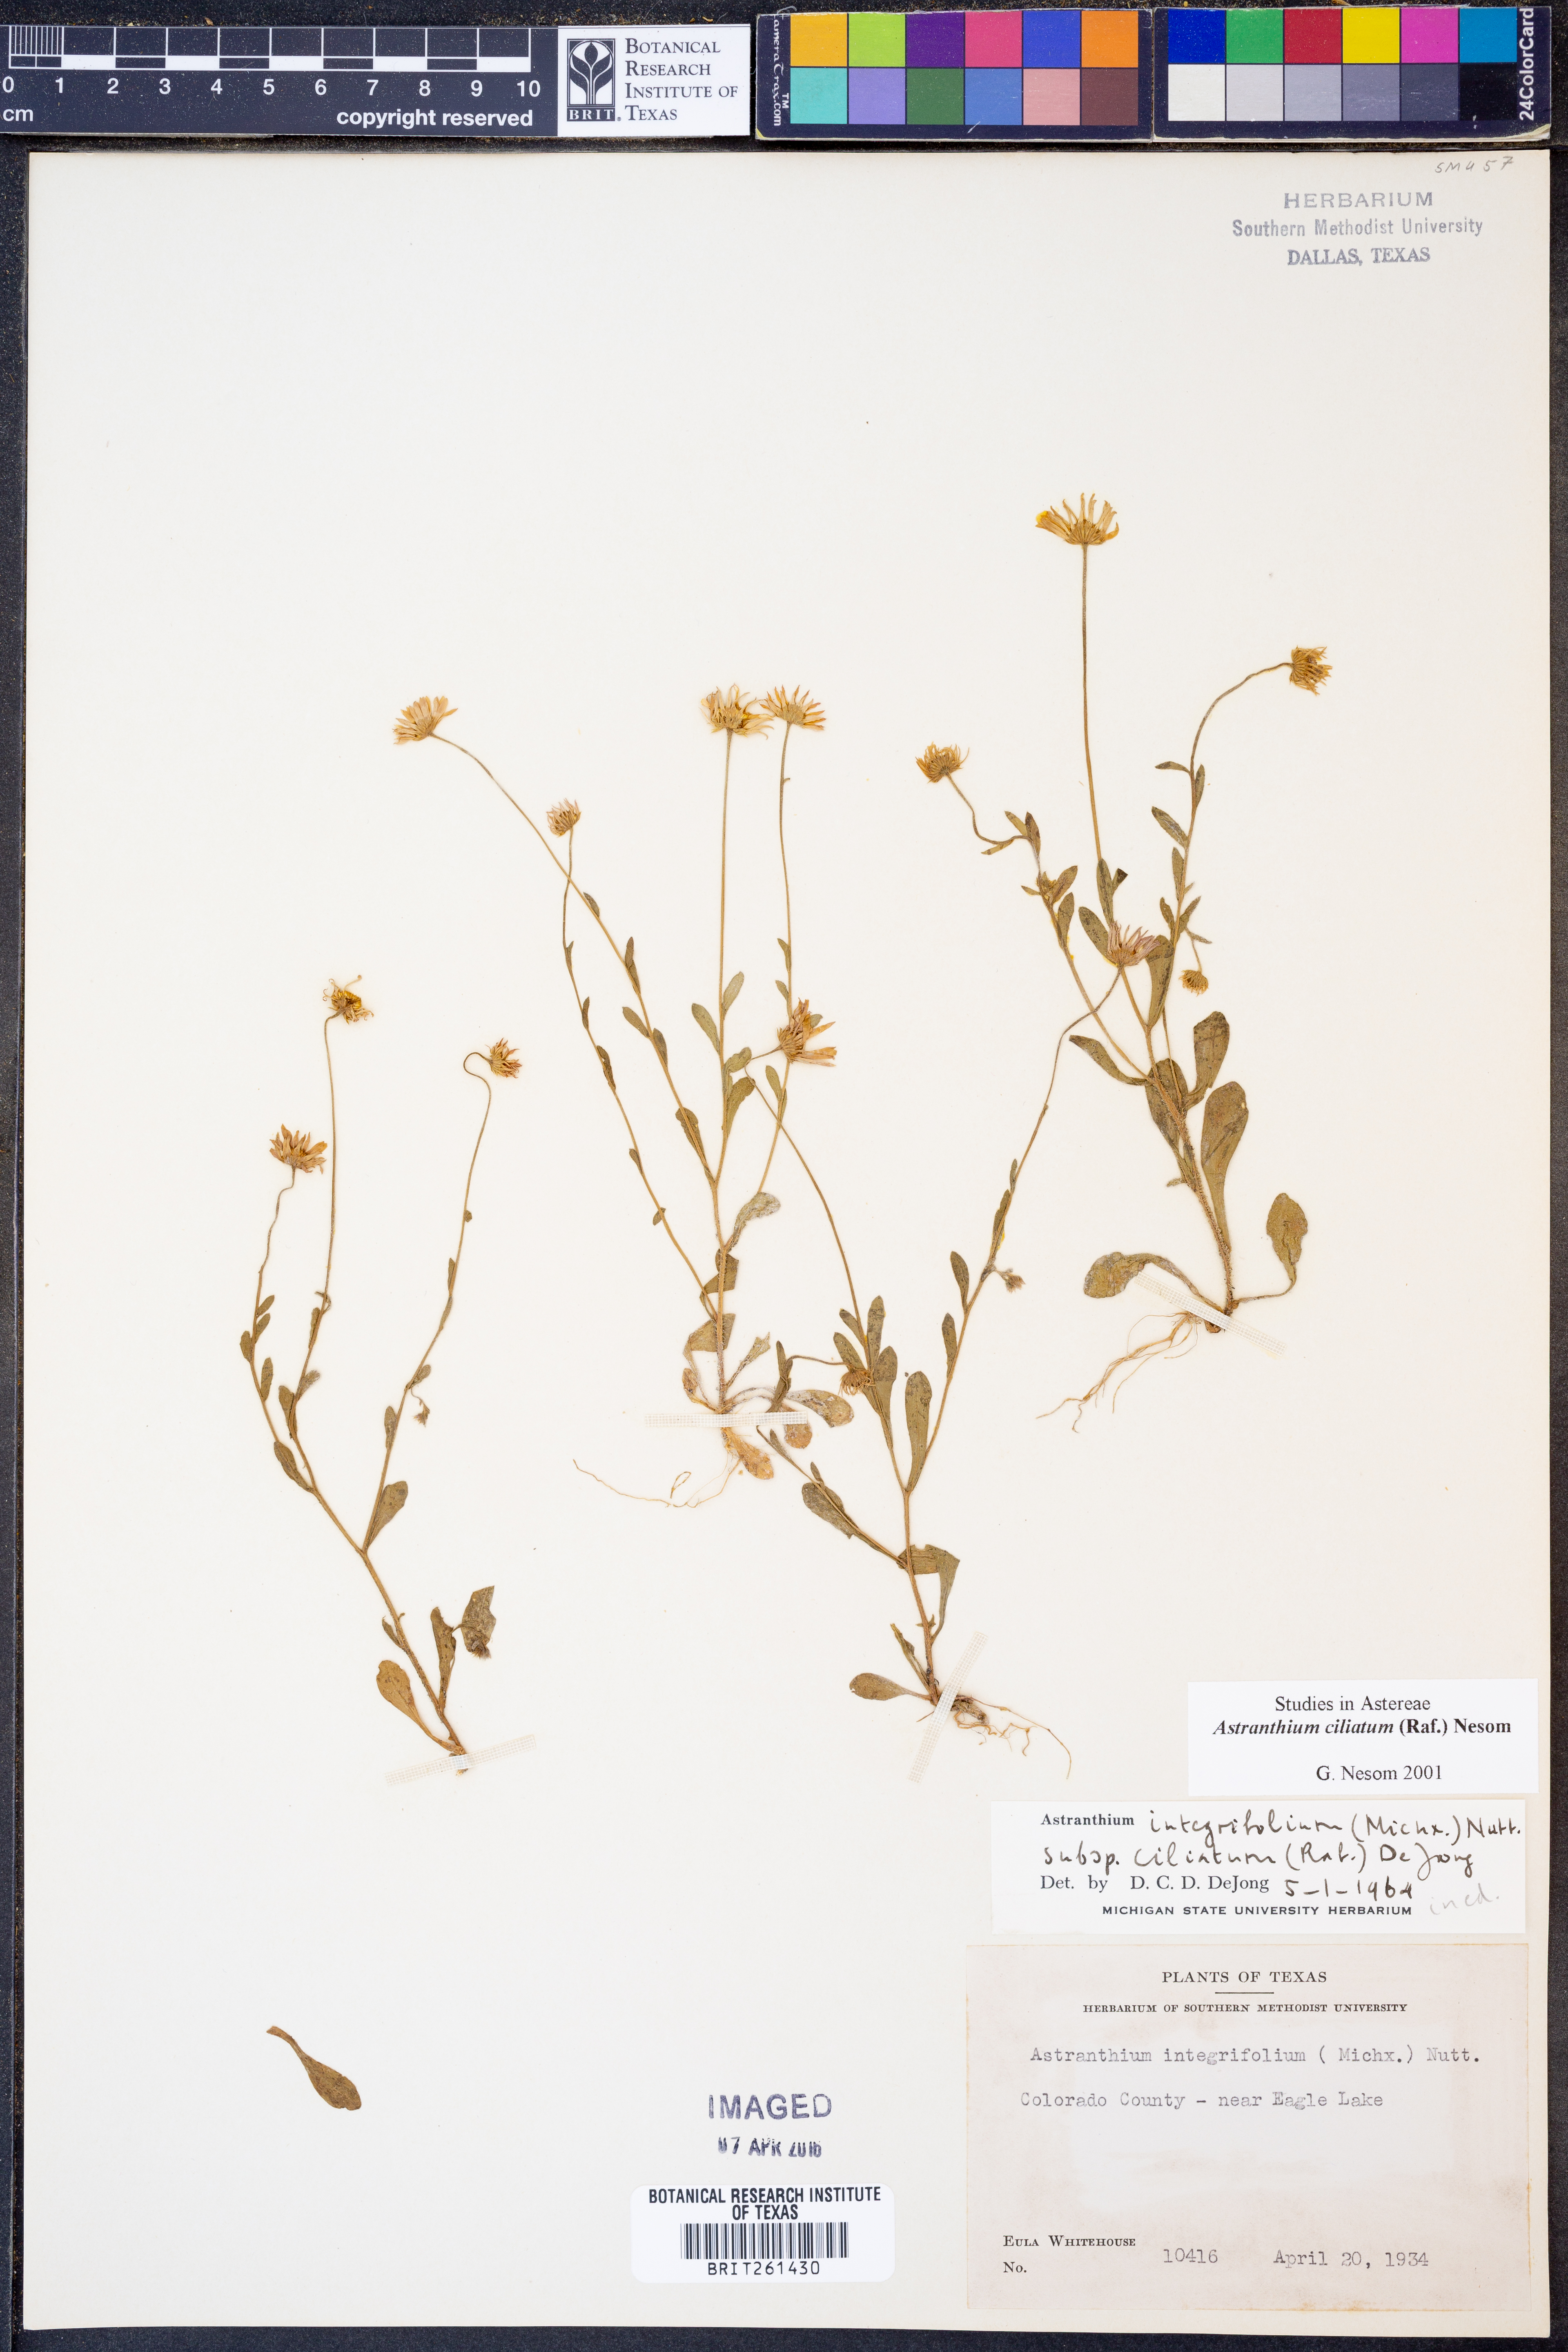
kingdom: Plantae
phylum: Tracheophyta
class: Magnoliopsida
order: Asterales
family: Asteraceae
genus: Astranthium
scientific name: Astranthium ciliatum
